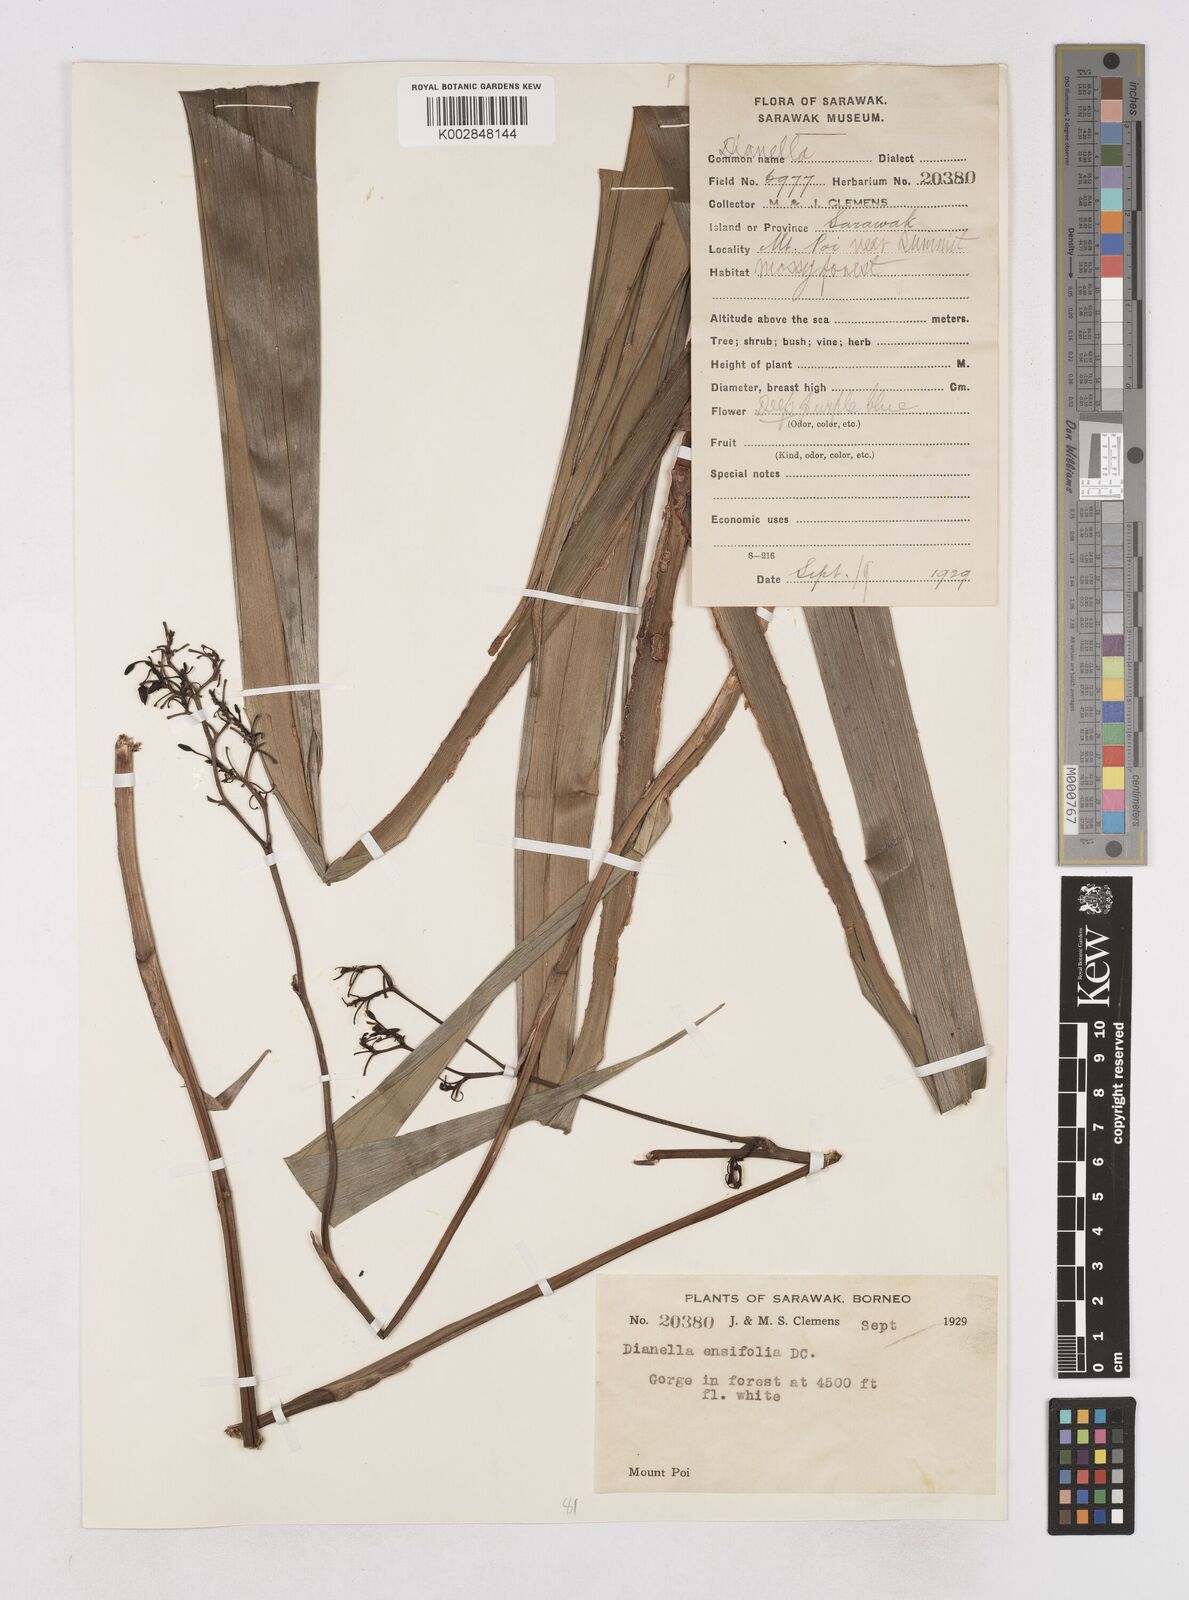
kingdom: Plantae
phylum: Tracheophyta
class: Liliopsida
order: Asparagales
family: Asphodelaceae
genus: Dianella
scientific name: Dianella ensifolia
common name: New zealand lilyplant
